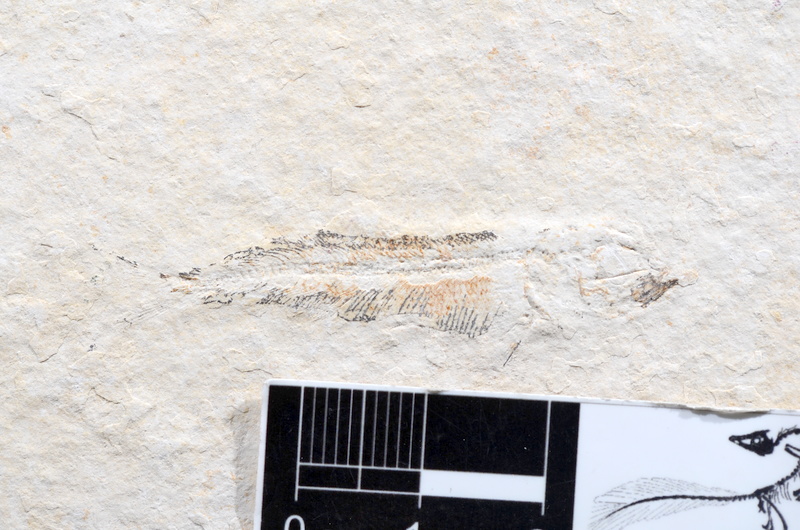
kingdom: Animalia
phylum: Chordata
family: Allothrissopidae
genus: Allothrissops
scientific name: Allothrissops mesogaster
